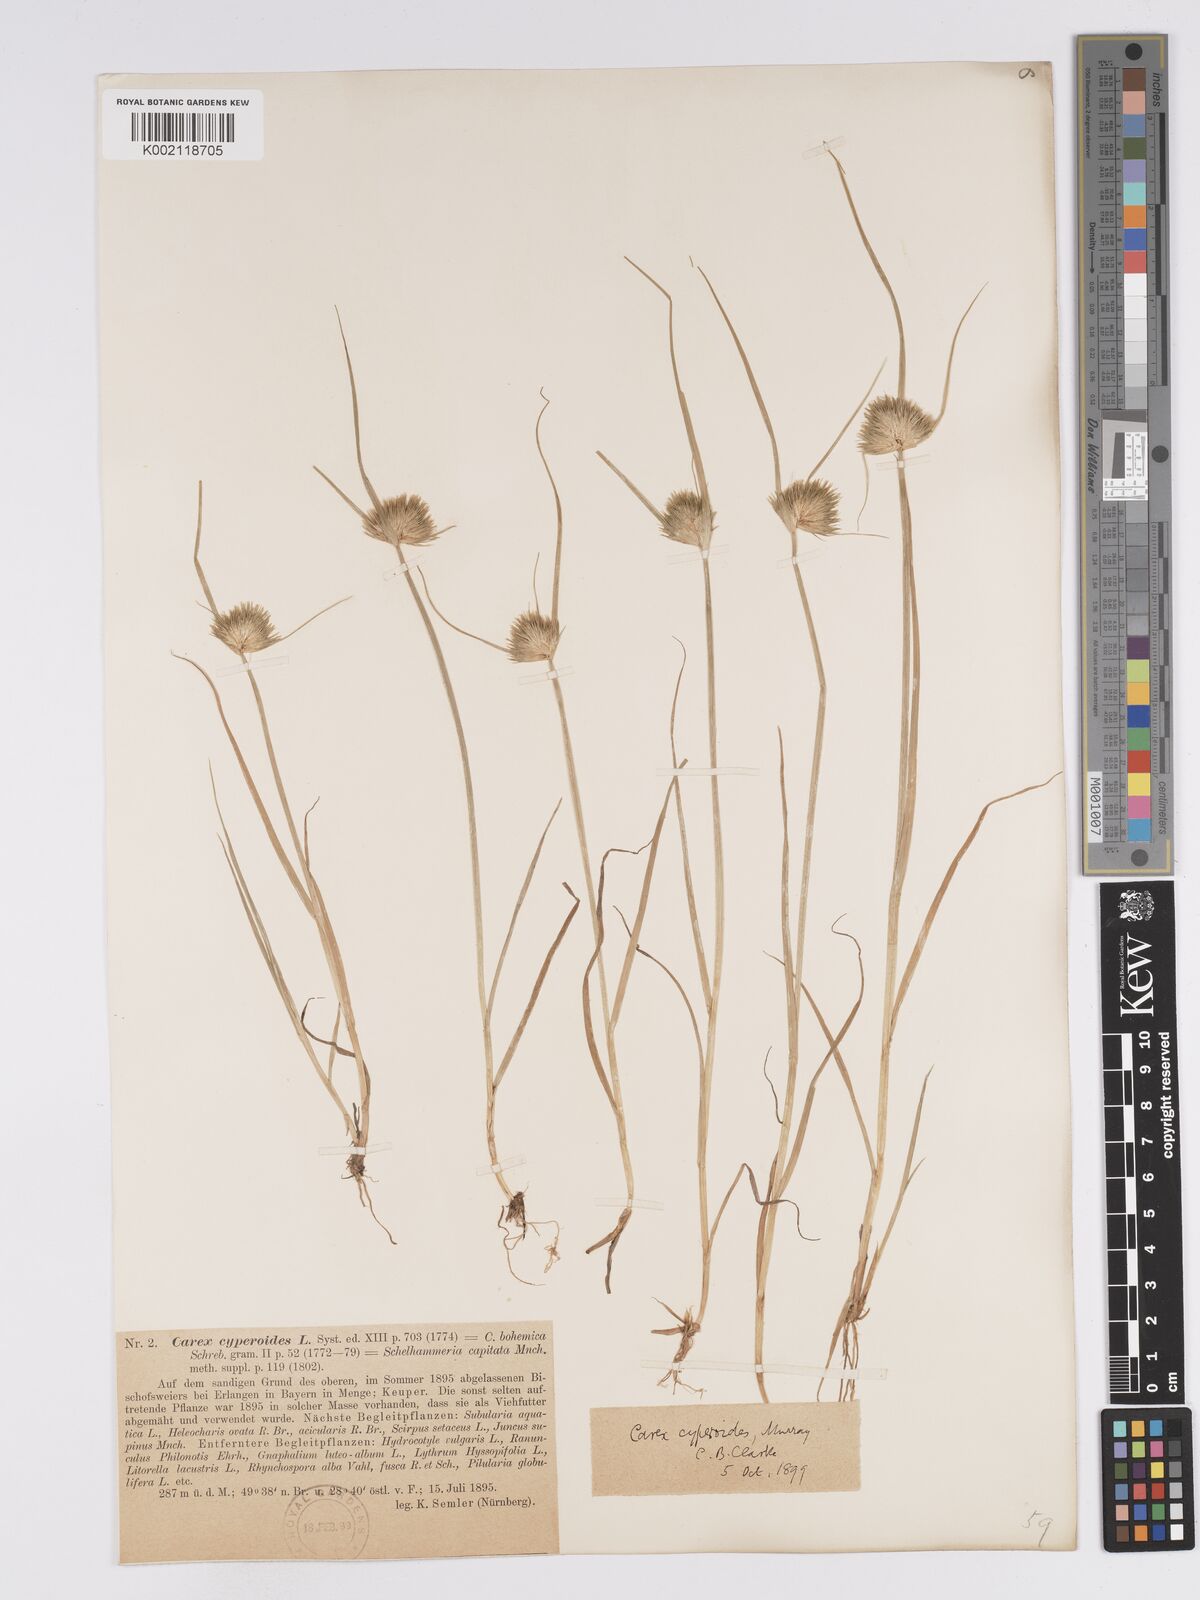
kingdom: Plantae
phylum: Tracheophyta
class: Liliopsida
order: Poales
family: Cyperaceae
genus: Carex
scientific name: Carex bohemica
